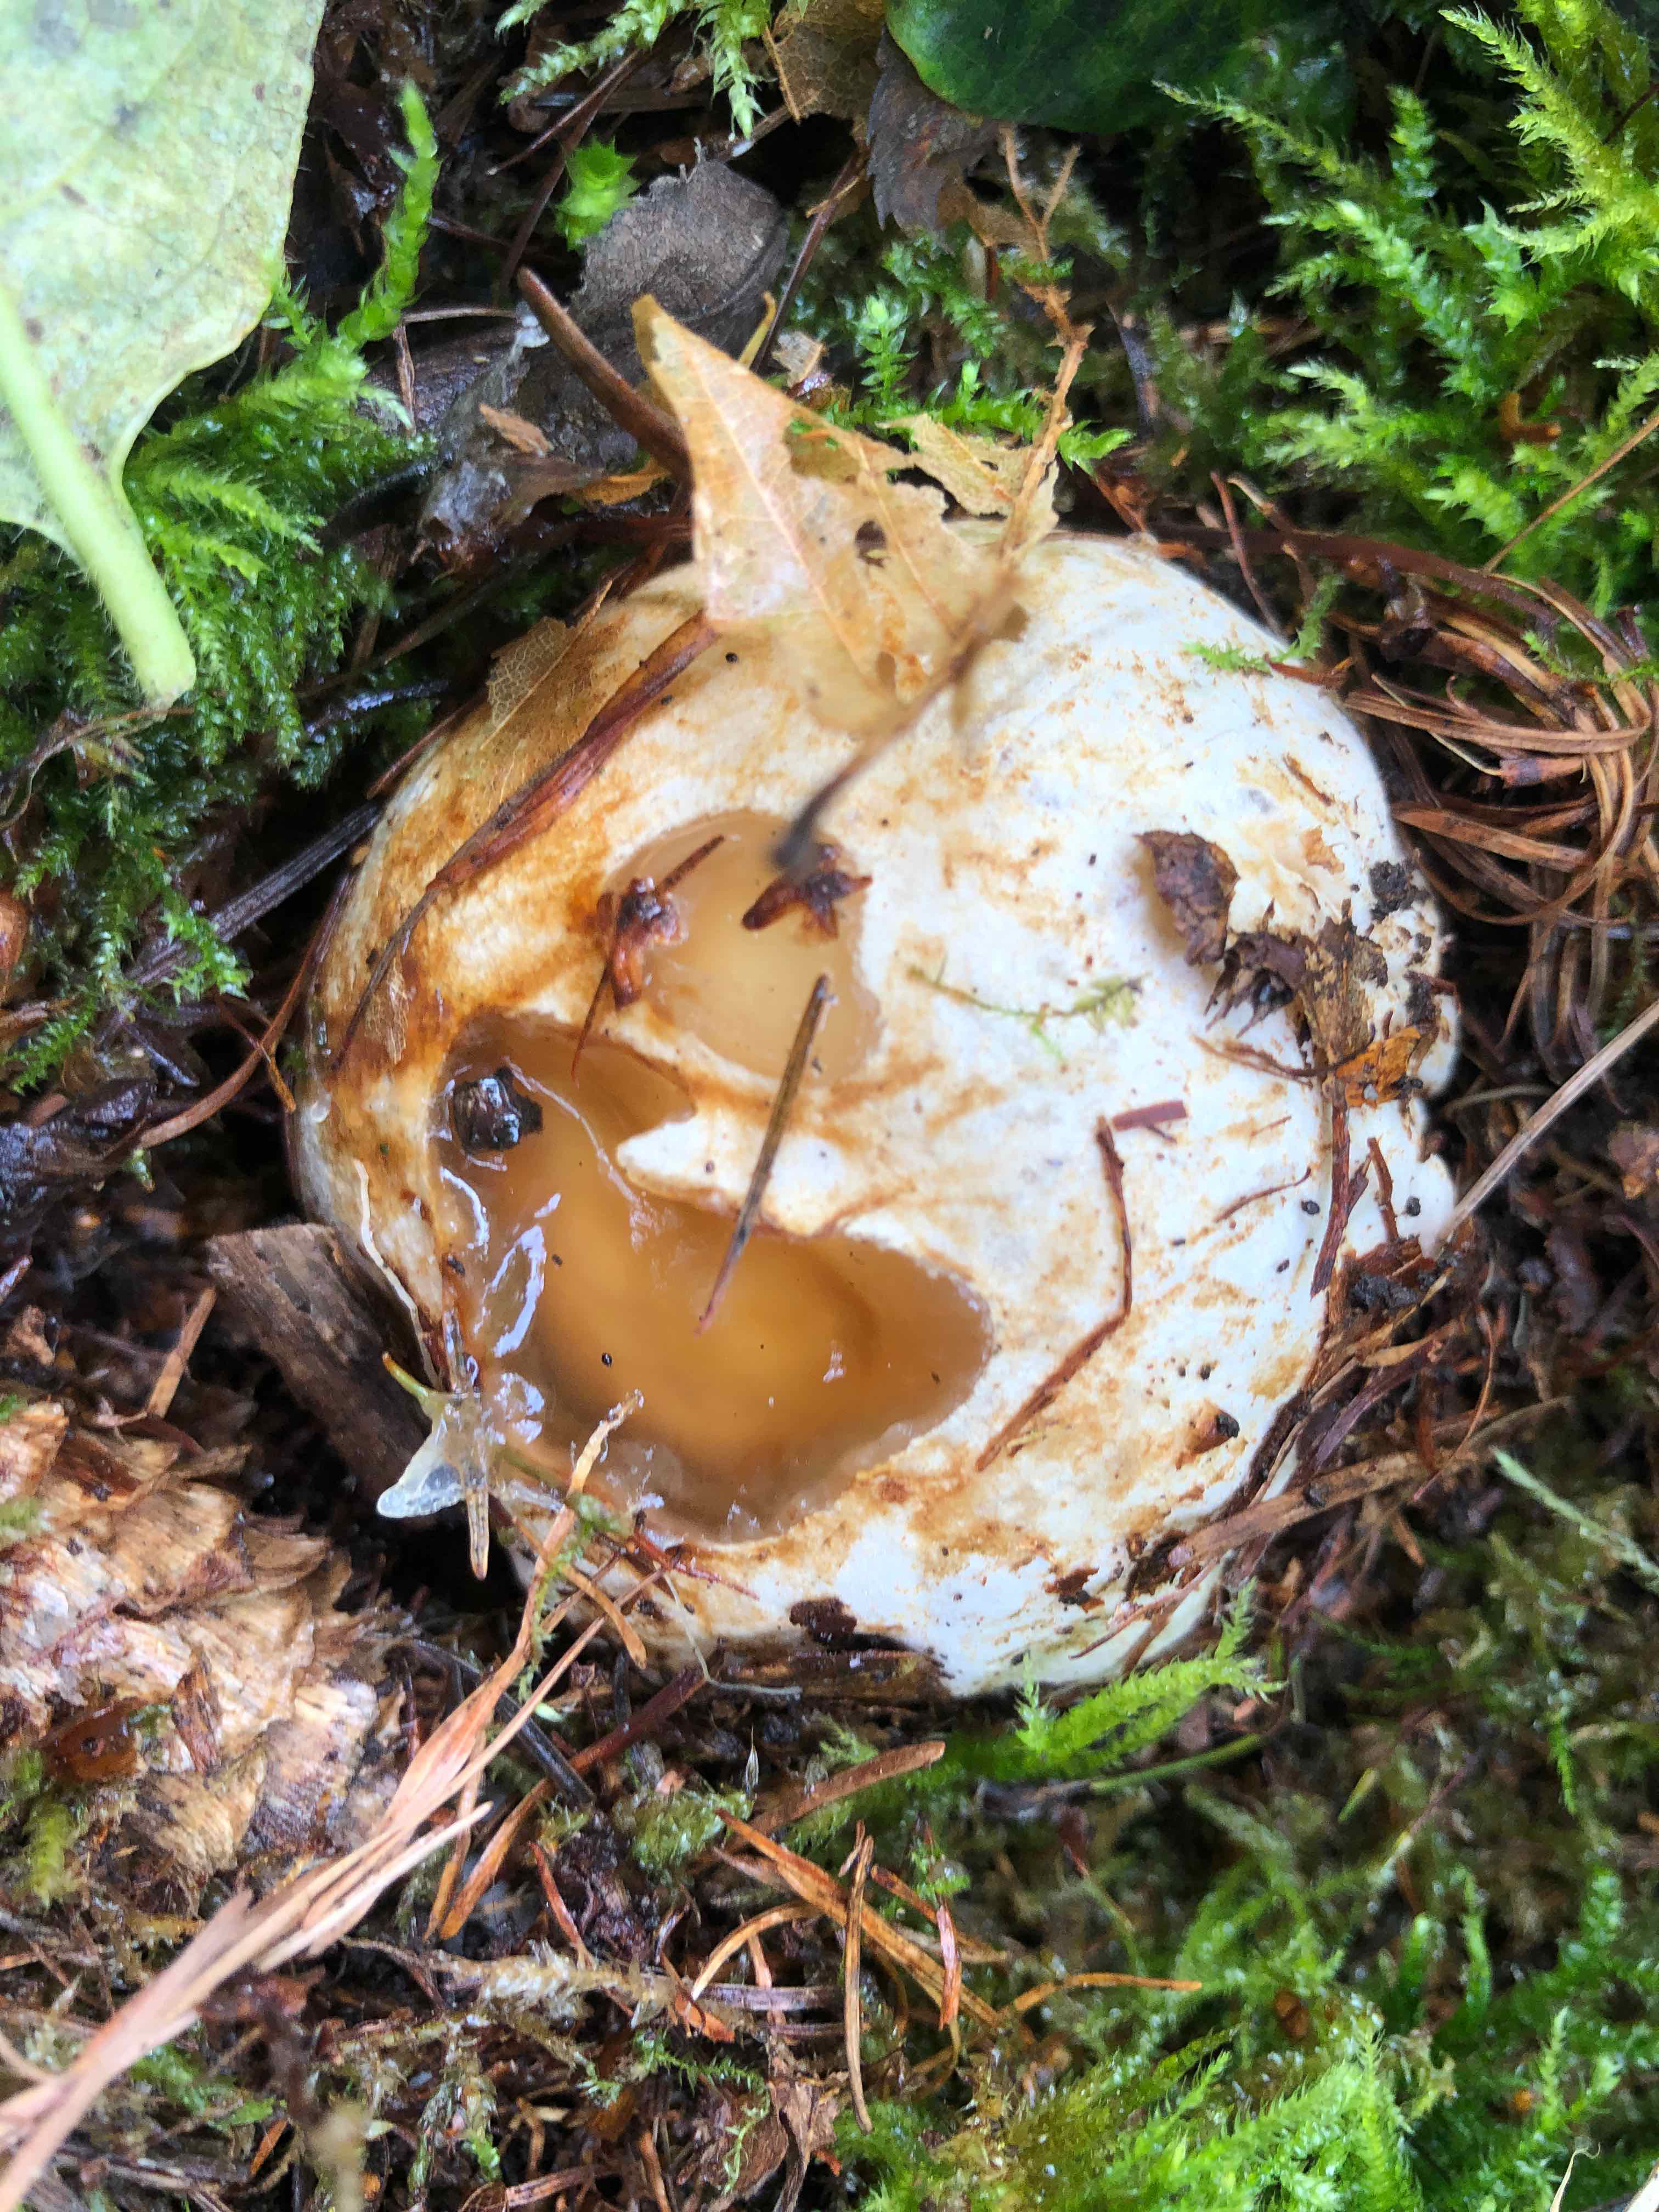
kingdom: Fungi
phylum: Basidiomycota
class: Agaricomycetes
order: Phallales
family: Phallaceae
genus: Phallus
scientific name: Phallus impudicus
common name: almindelig stinksvamp
